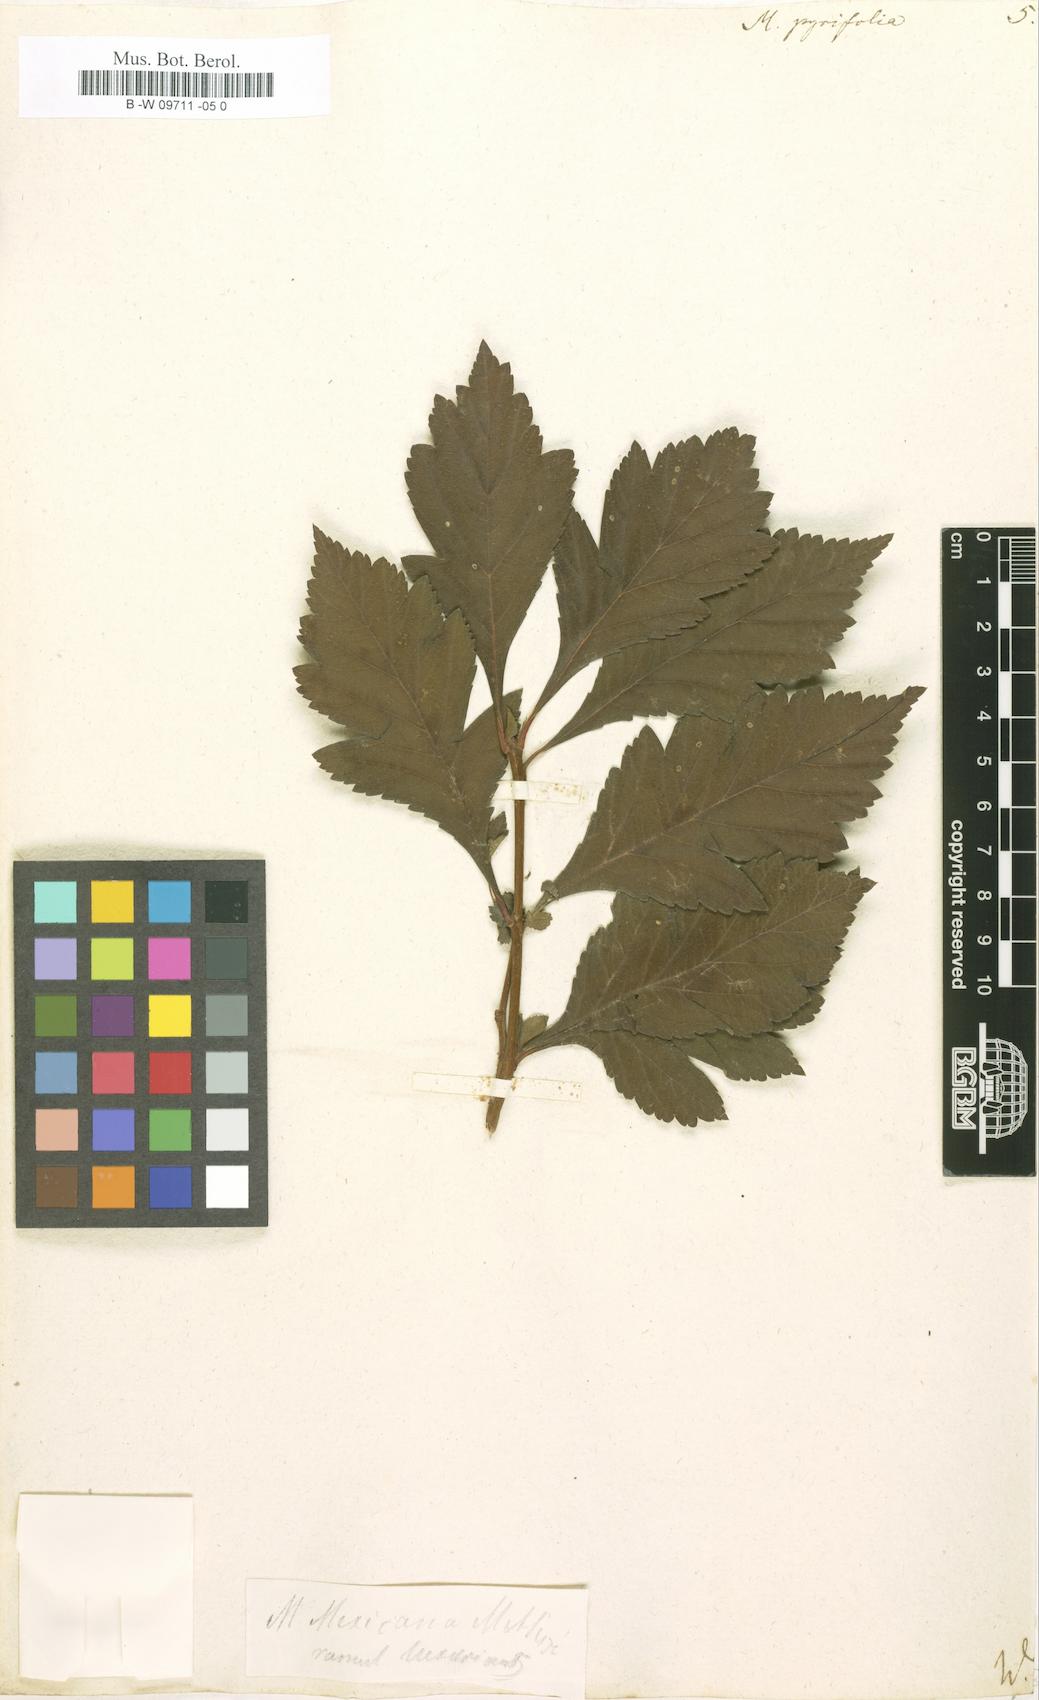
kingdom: Plantae
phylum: Tracheophyta
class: Magnoliopsida
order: Rosales
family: Rosaceae
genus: Crataegus
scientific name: Crataegus
